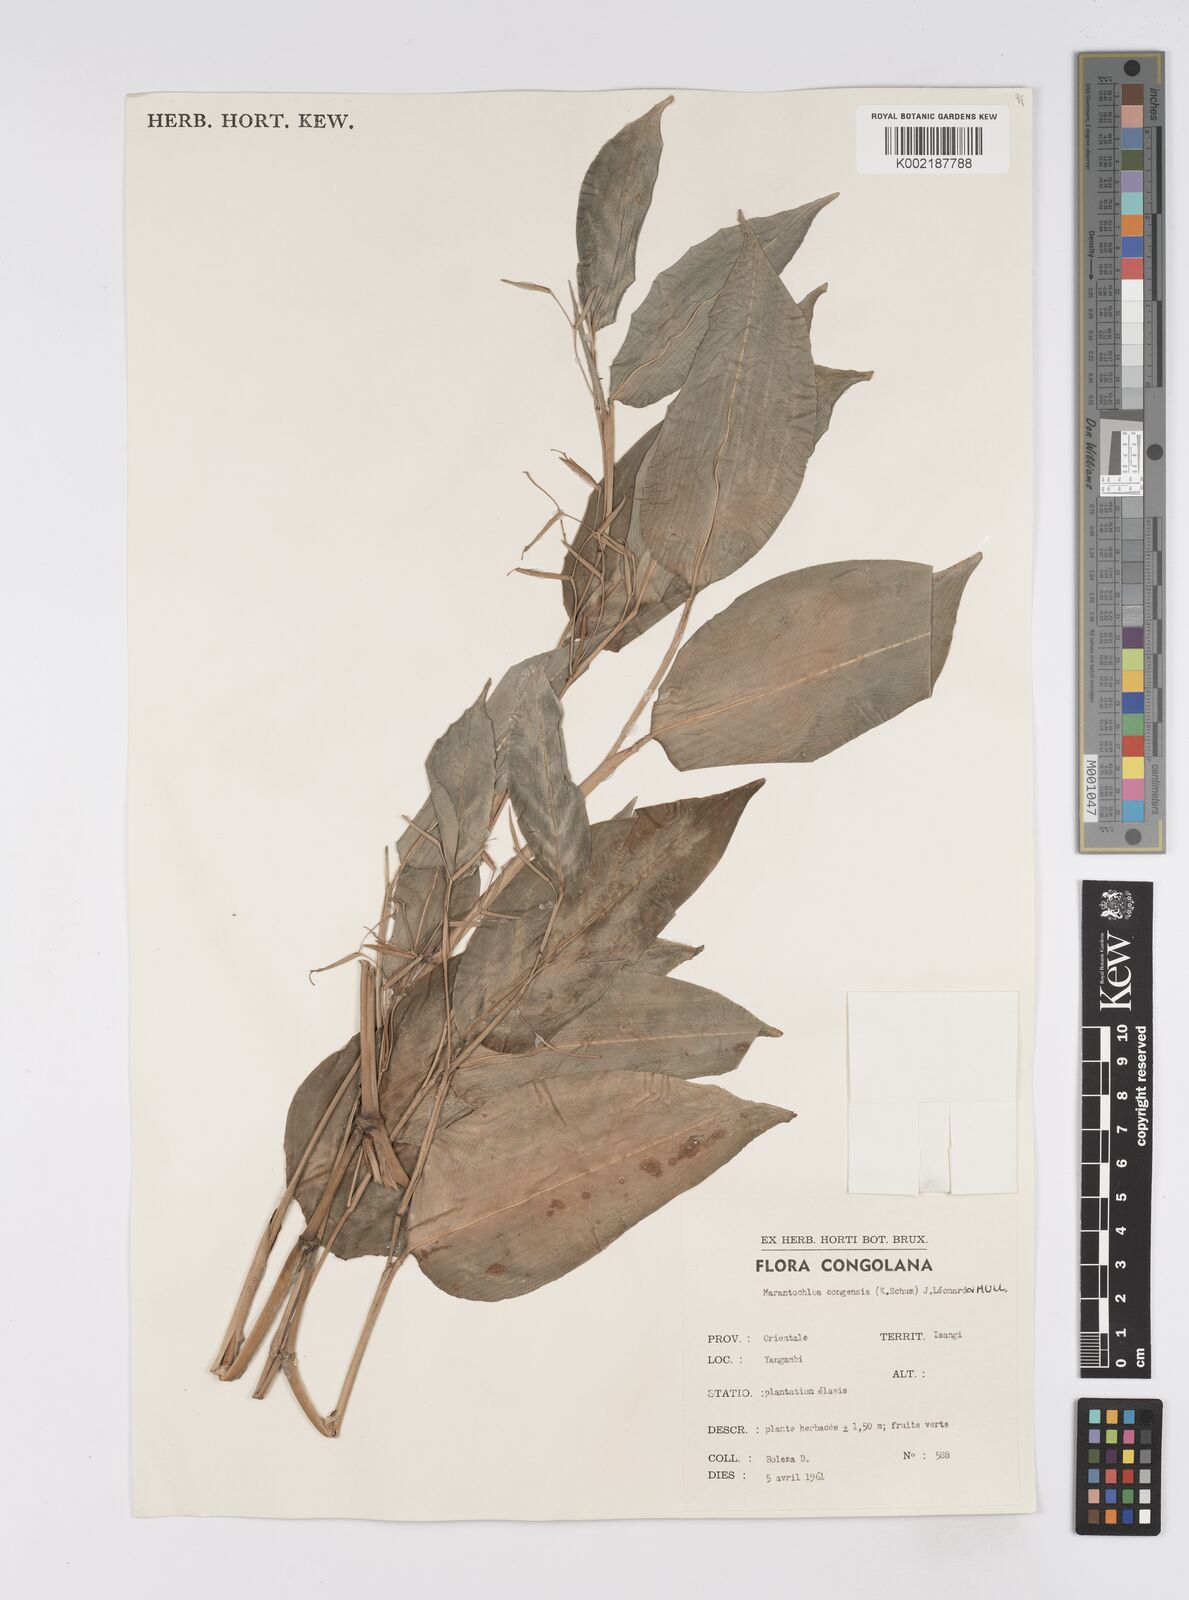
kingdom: Plantae
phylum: Tracheophyta
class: Liliopsida
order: Zingiberales
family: Marantaceae
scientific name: Marantaceae
